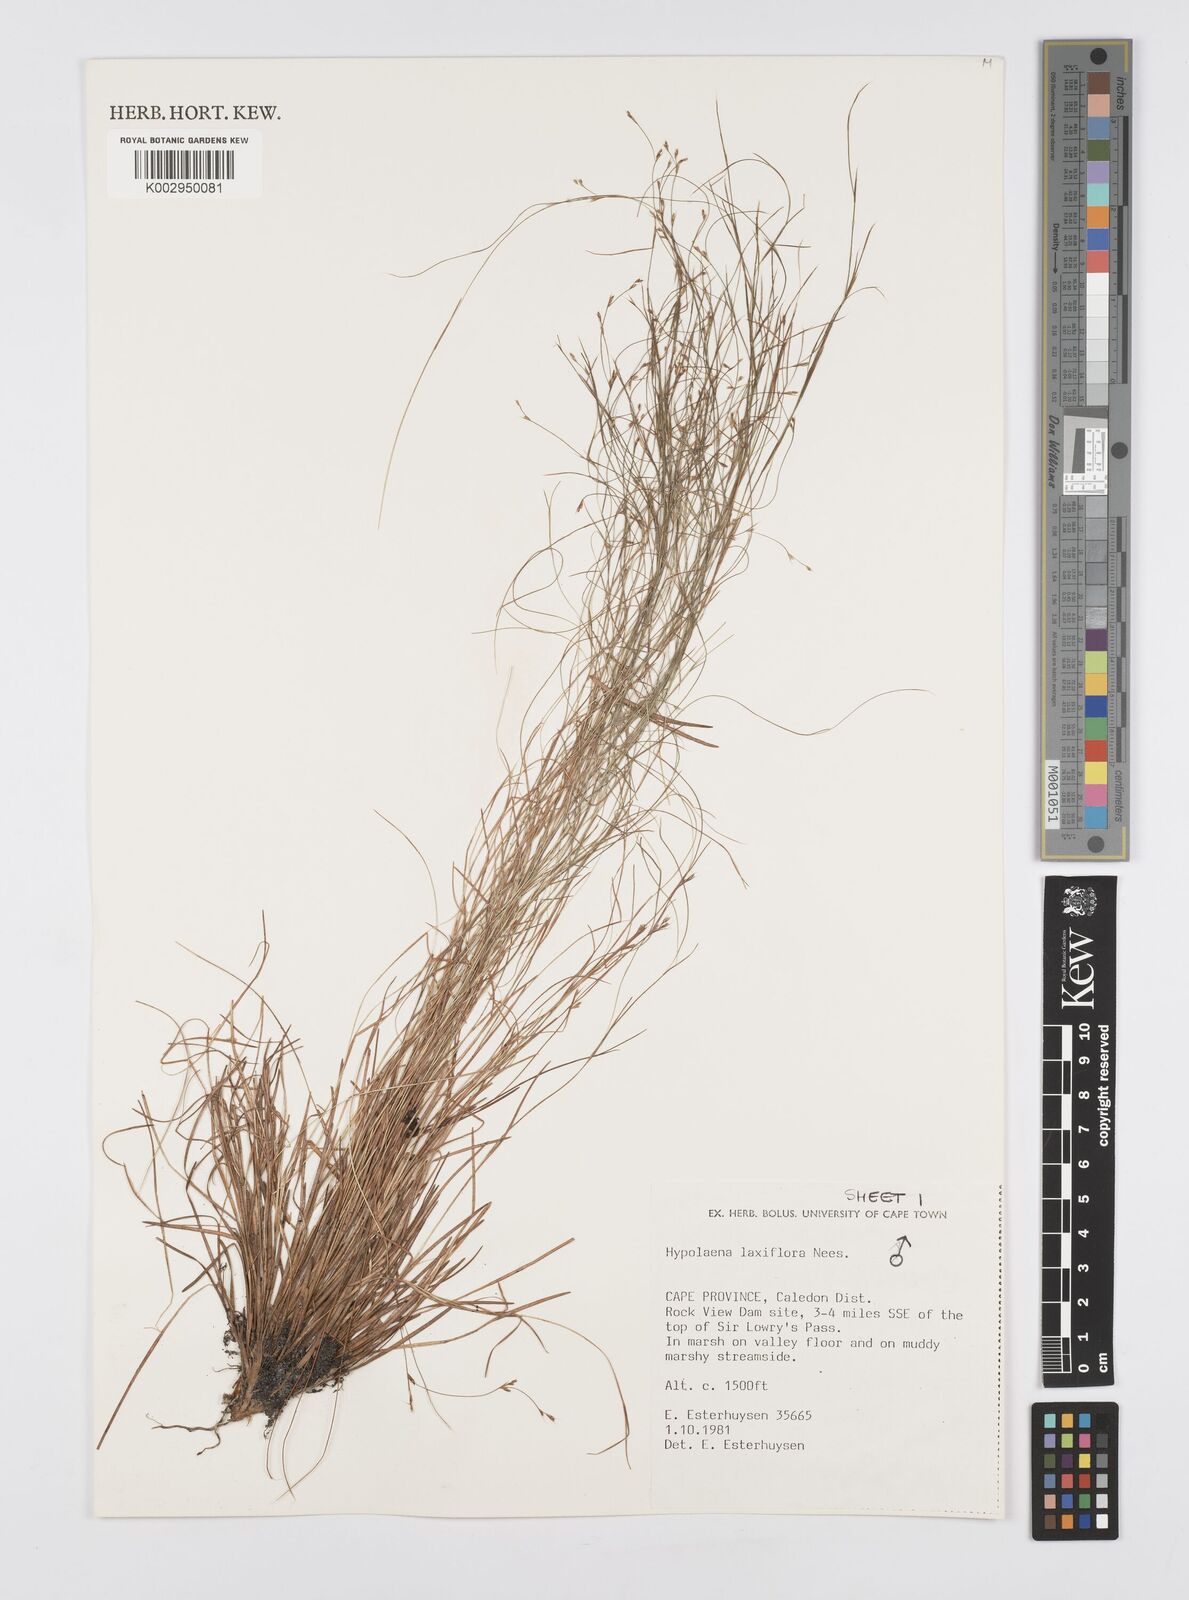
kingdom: Plantae
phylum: Tracheophyta
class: Liliopsida
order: Poales
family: Restionaceae
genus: Anthochortus
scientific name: Anthochortus laxiflorus
